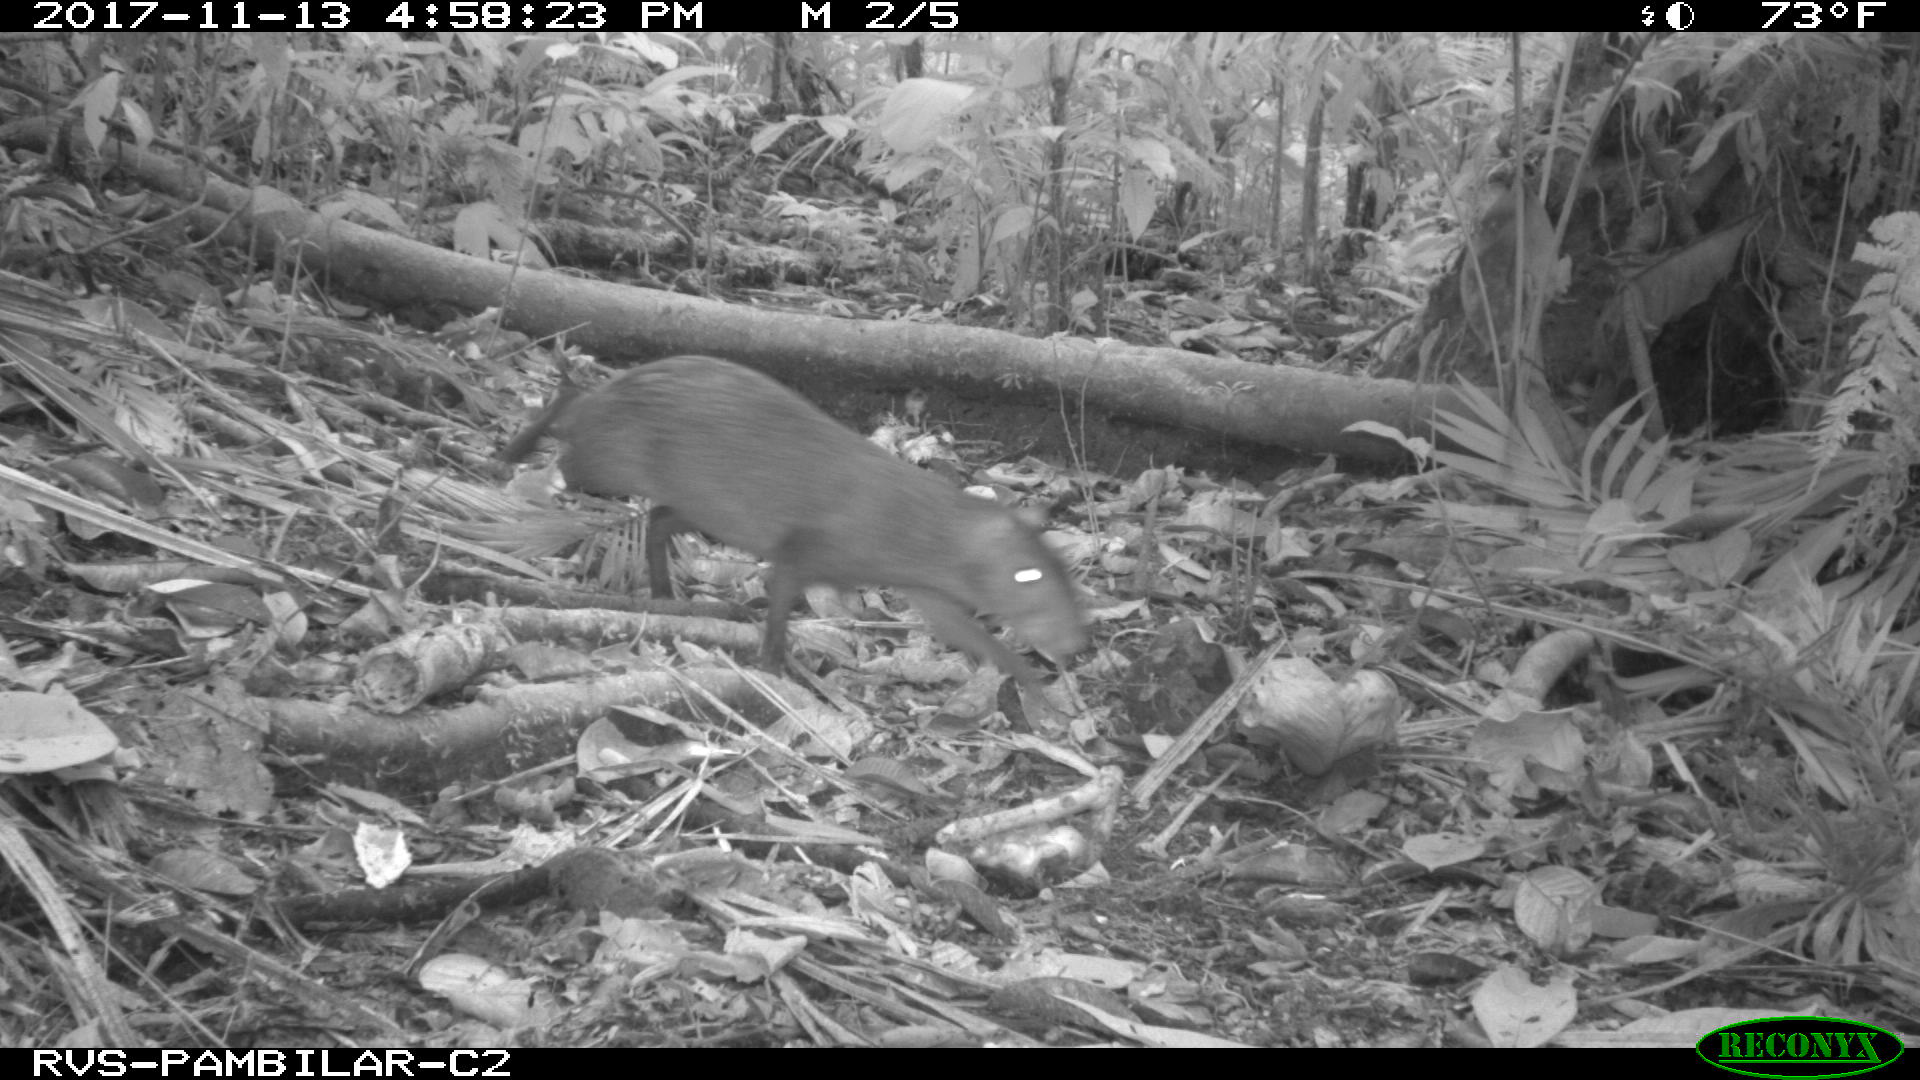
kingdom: Animalia
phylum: Chordata
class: Mammalia
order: Rodentia
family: Dasyproctidae
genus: Dasyprocta
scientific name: Dasyprocta punctata
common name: Central american agouti
